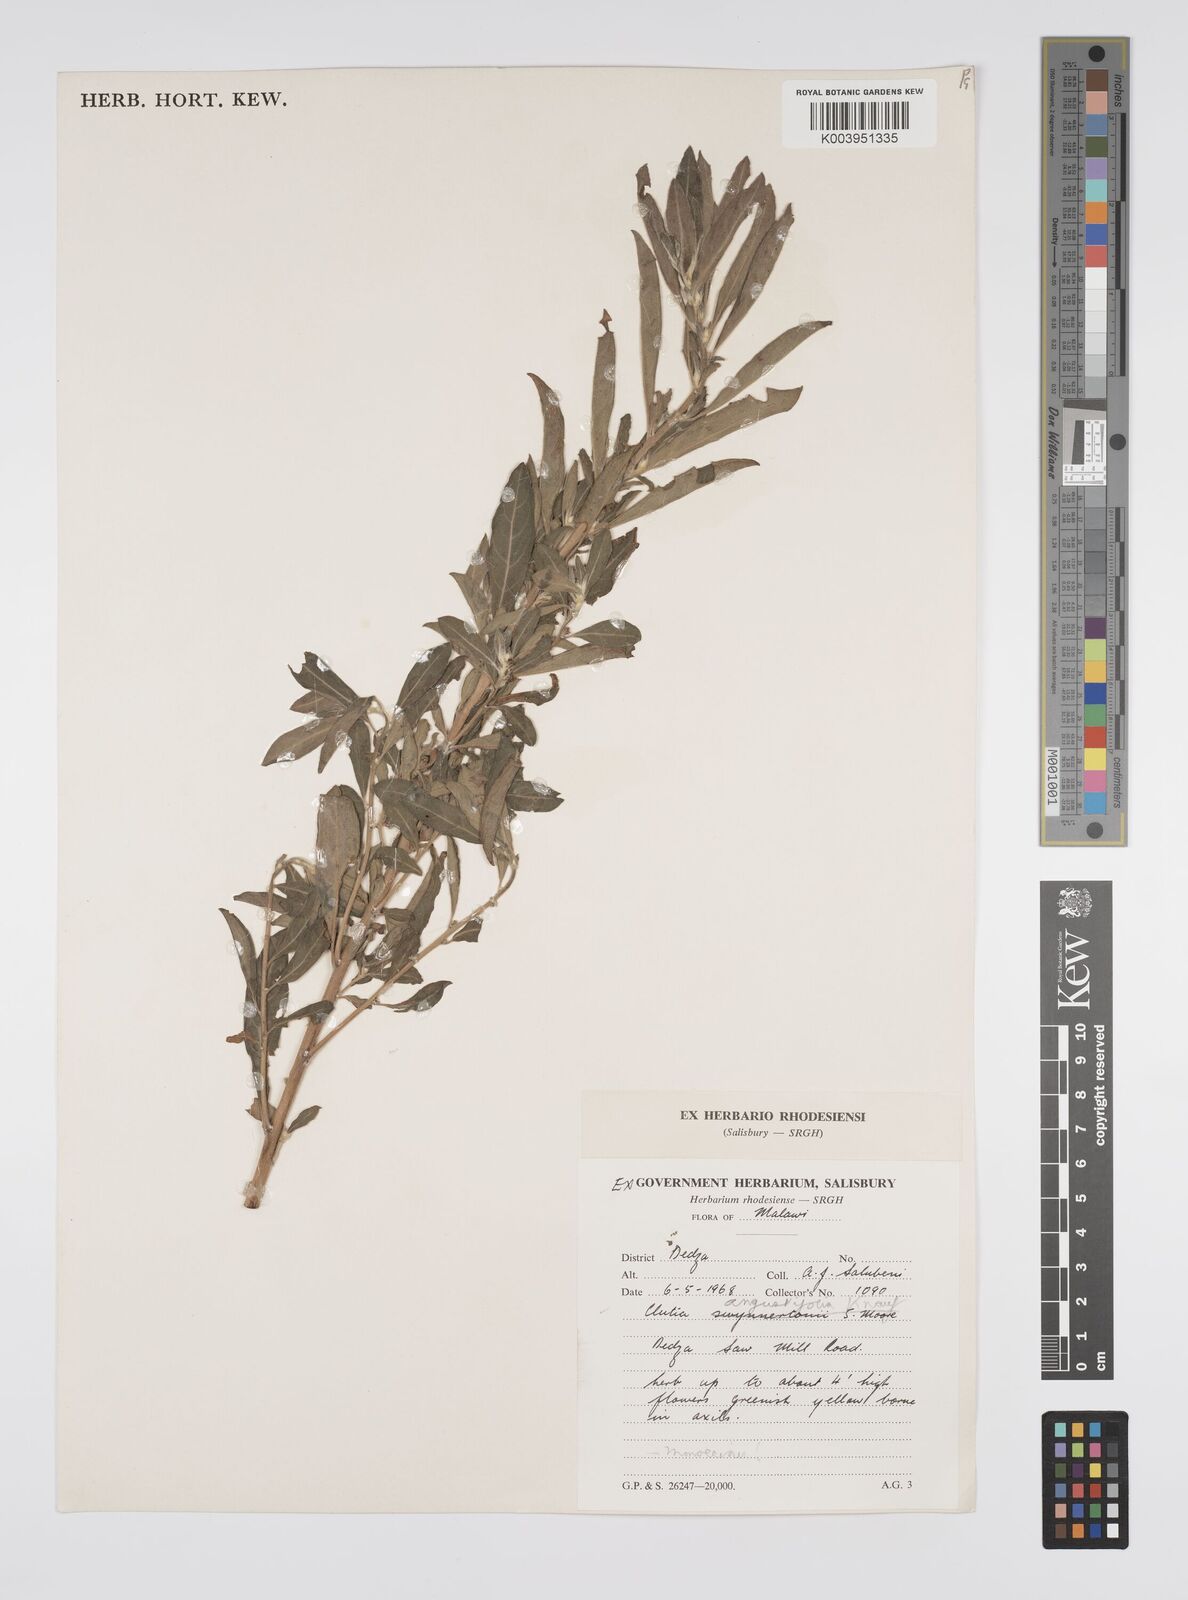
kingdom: Plantae
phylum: Tracheophyta
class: Magnoliopsida
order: Malpighiales
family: Peraceae
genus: Clutia
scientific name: Clutia angustifolia
